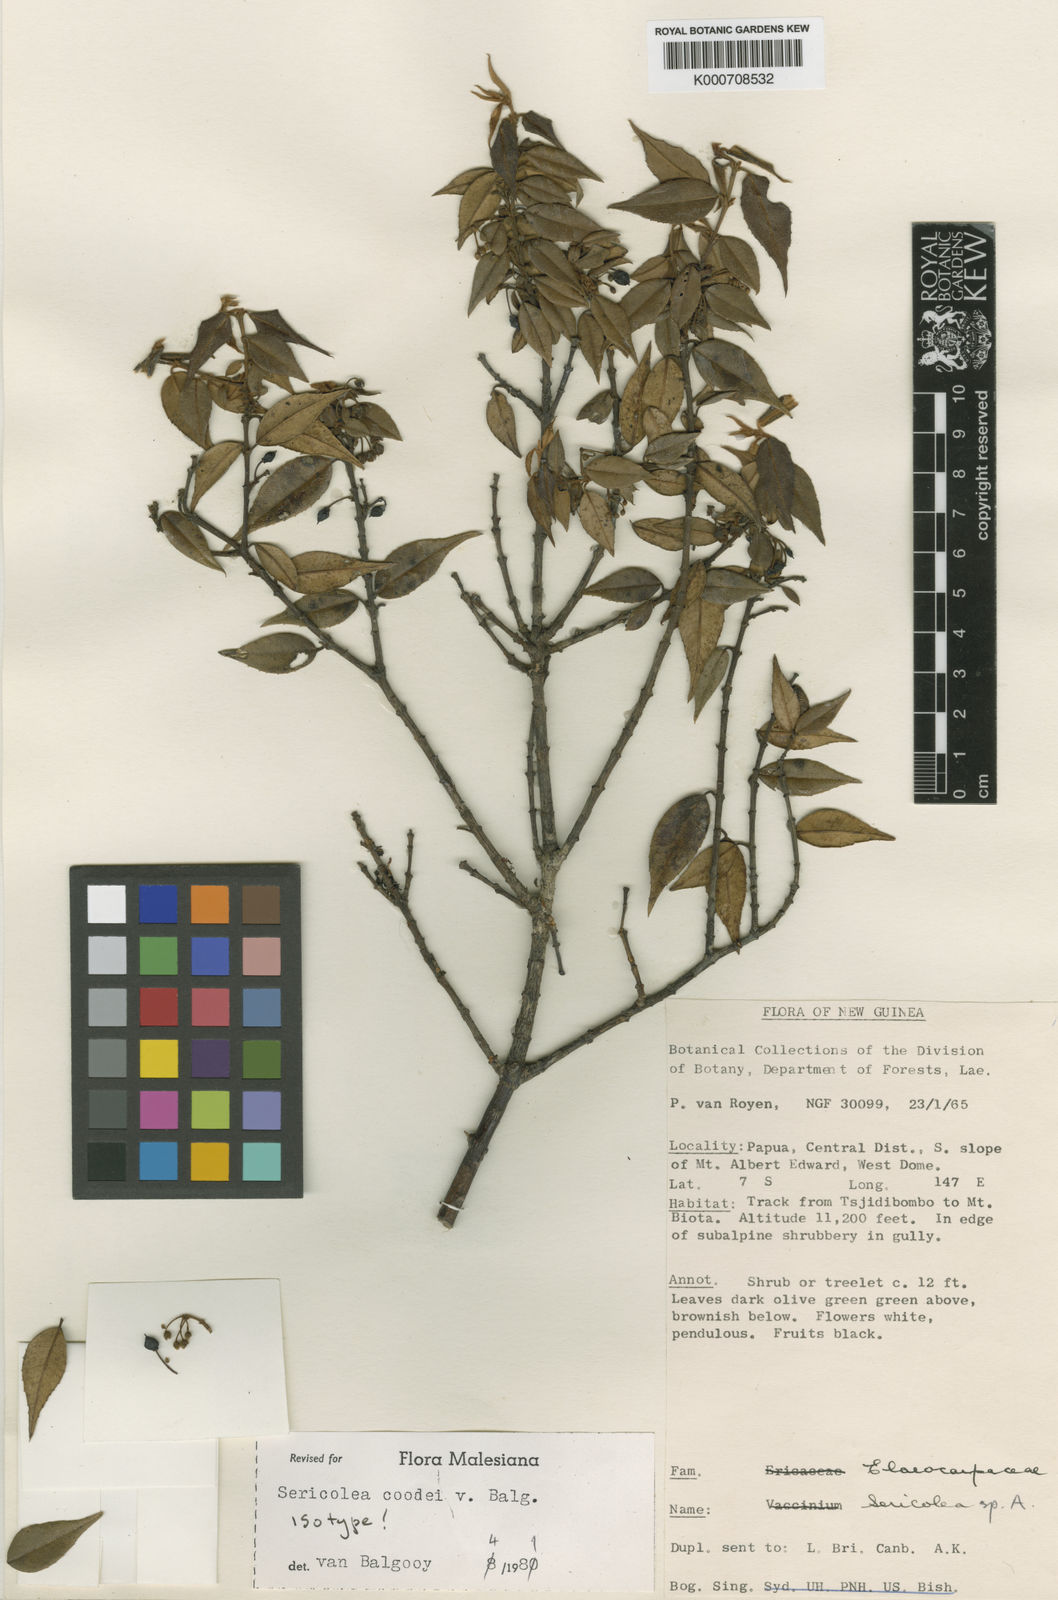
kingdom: Plantae
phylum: Tracheophyta
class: Magnoliopsida
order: Oxalidales
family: Elaeocarpaceae
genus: Sericolea
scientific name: Sericolea coodei
